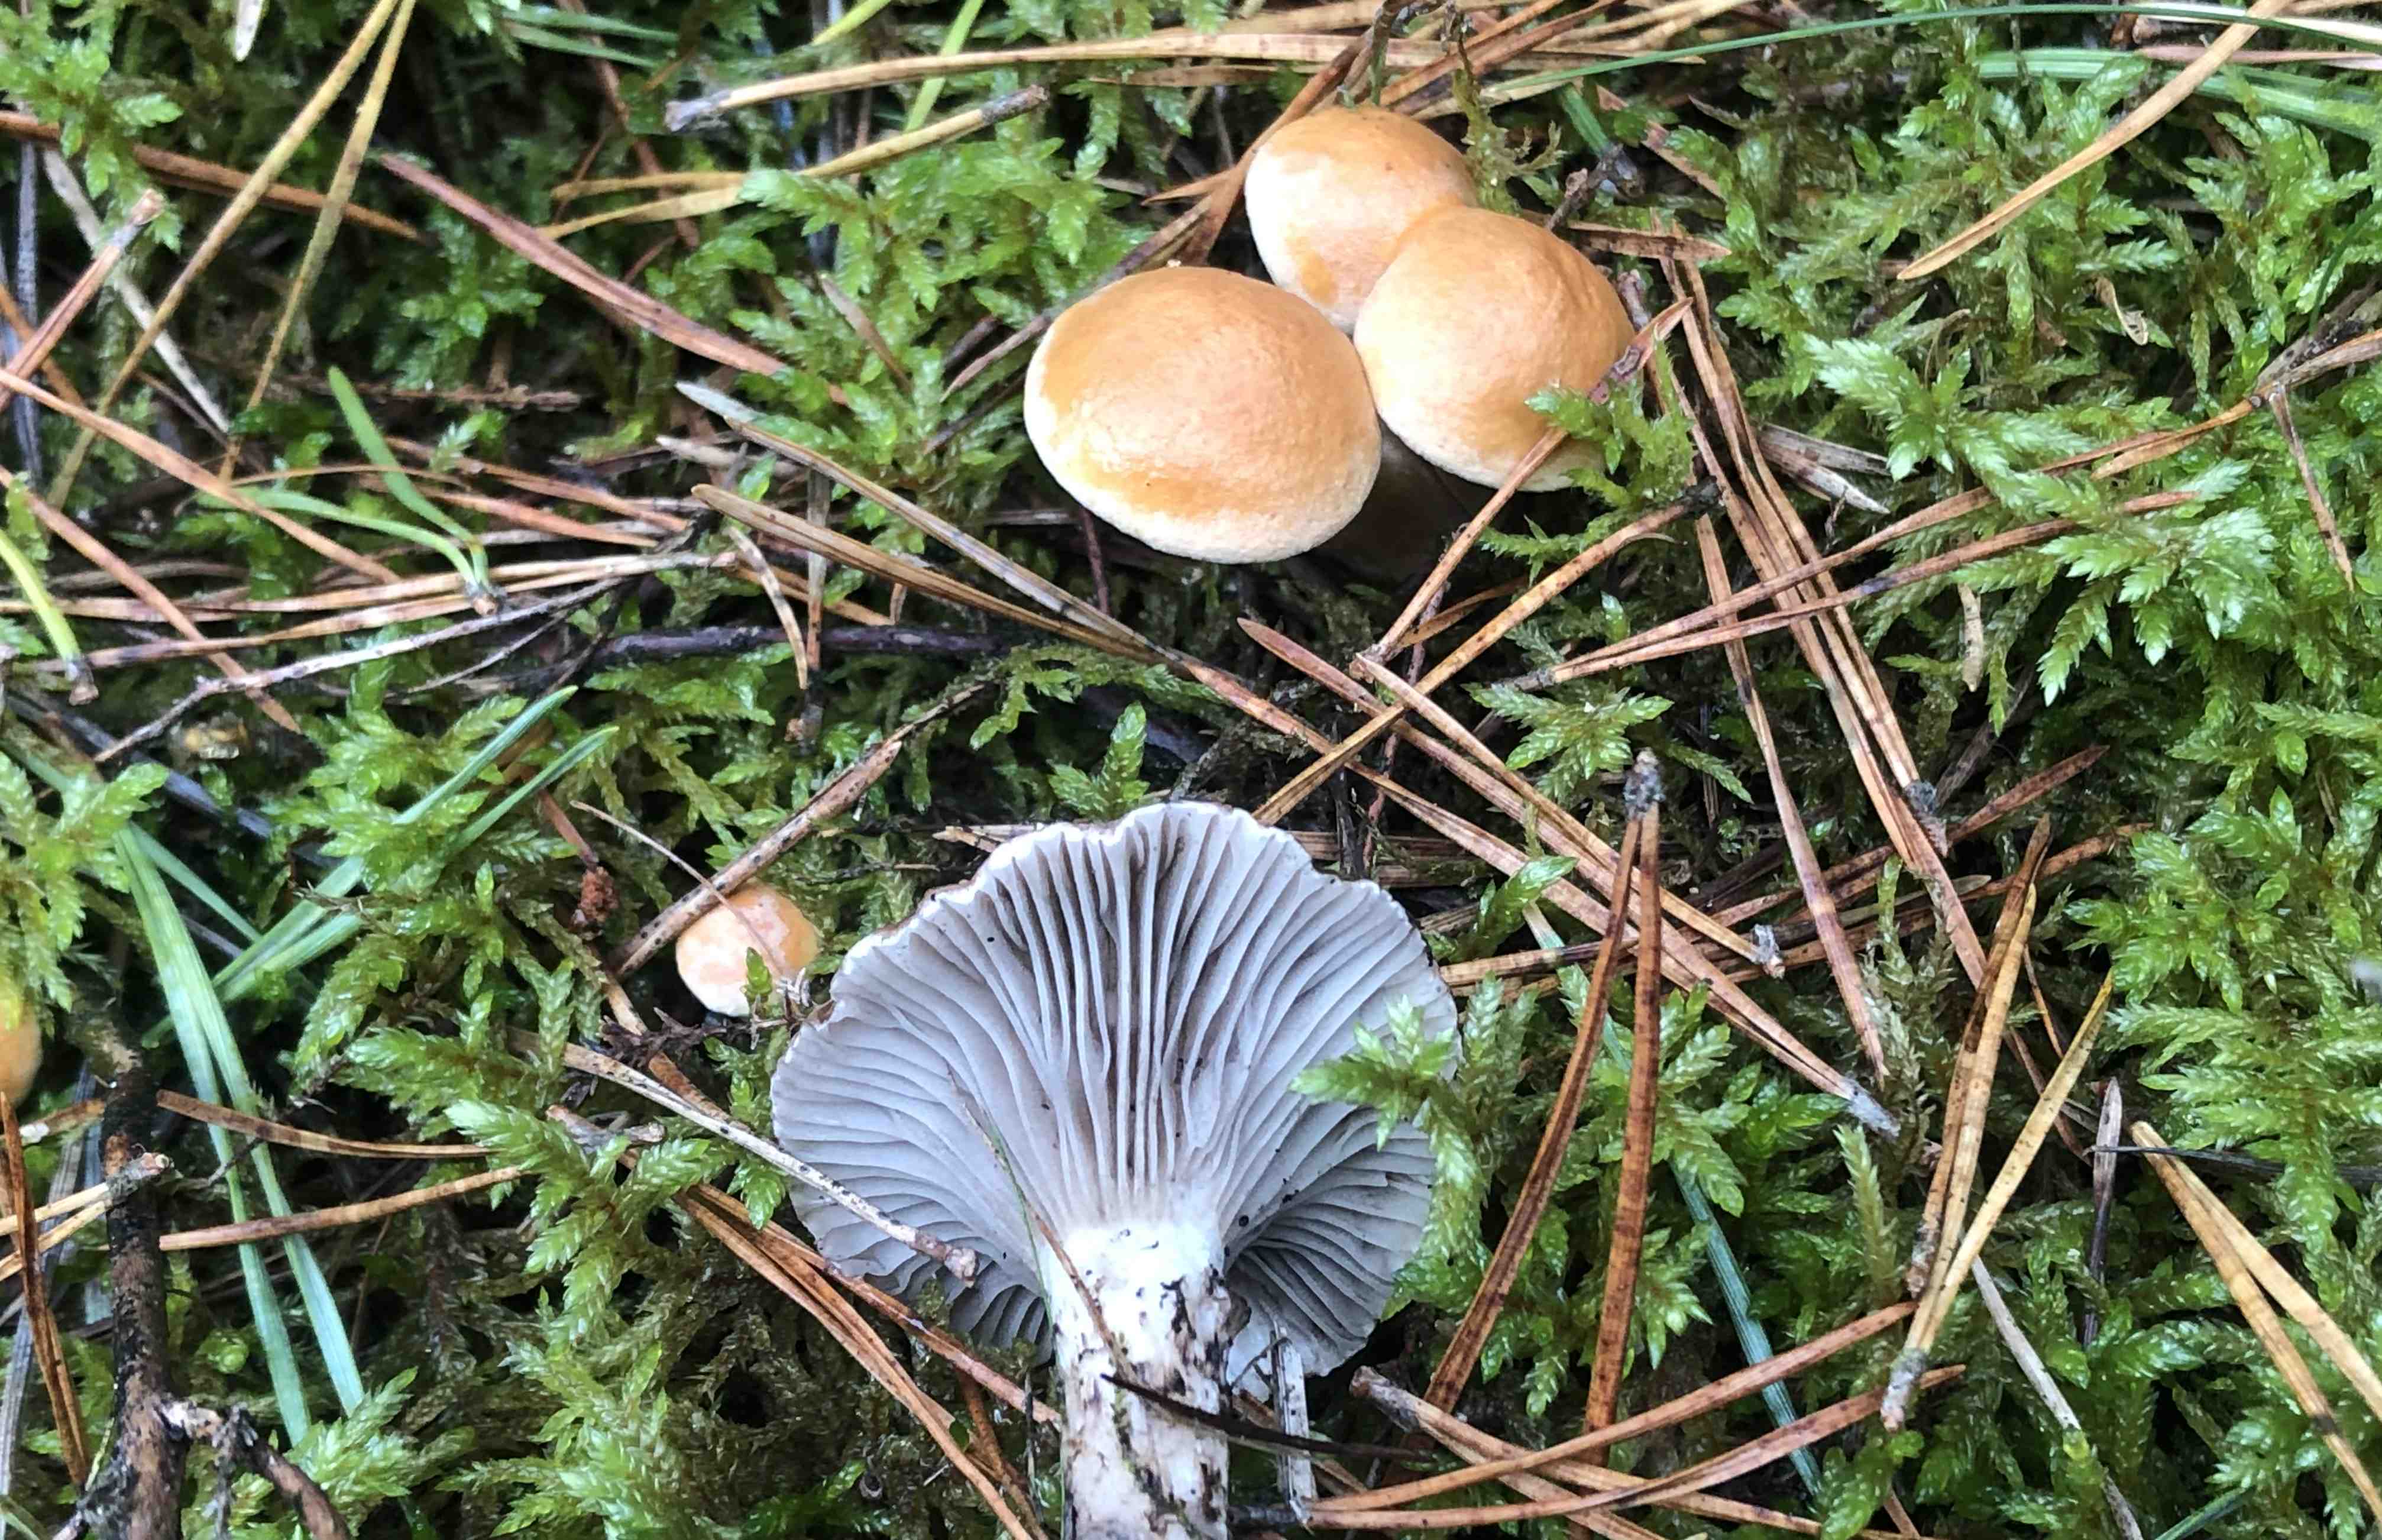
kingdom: Fungi
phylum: Basidiomycota
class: Agaricomycetes
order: Boletales
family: Gomphidiaceae
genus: Gomphidius
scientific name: Gomphidius roseus
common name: rosenrød slimslør
